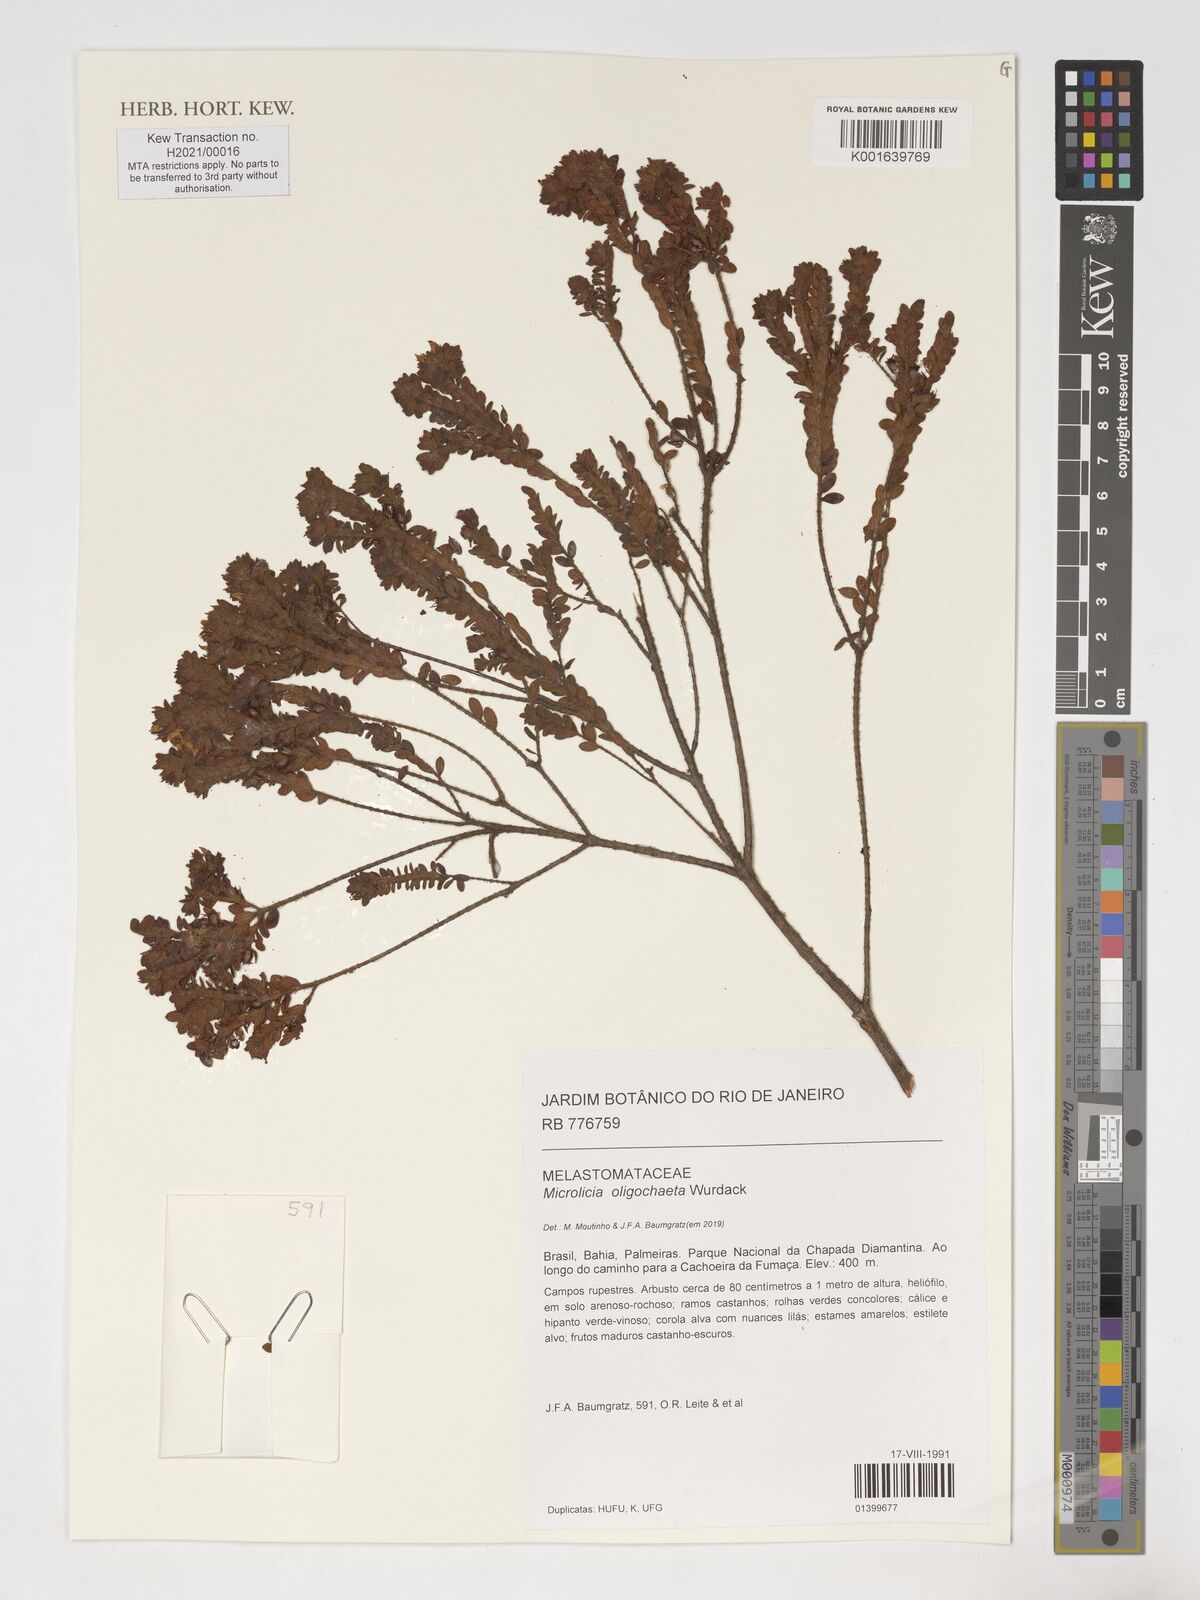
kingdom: Plantae
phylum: Tracheophyta
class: Magnoliopsida
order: Myrtales
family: Melastomataceae
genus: Microlicia
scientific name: Microlicia oligochaeta
